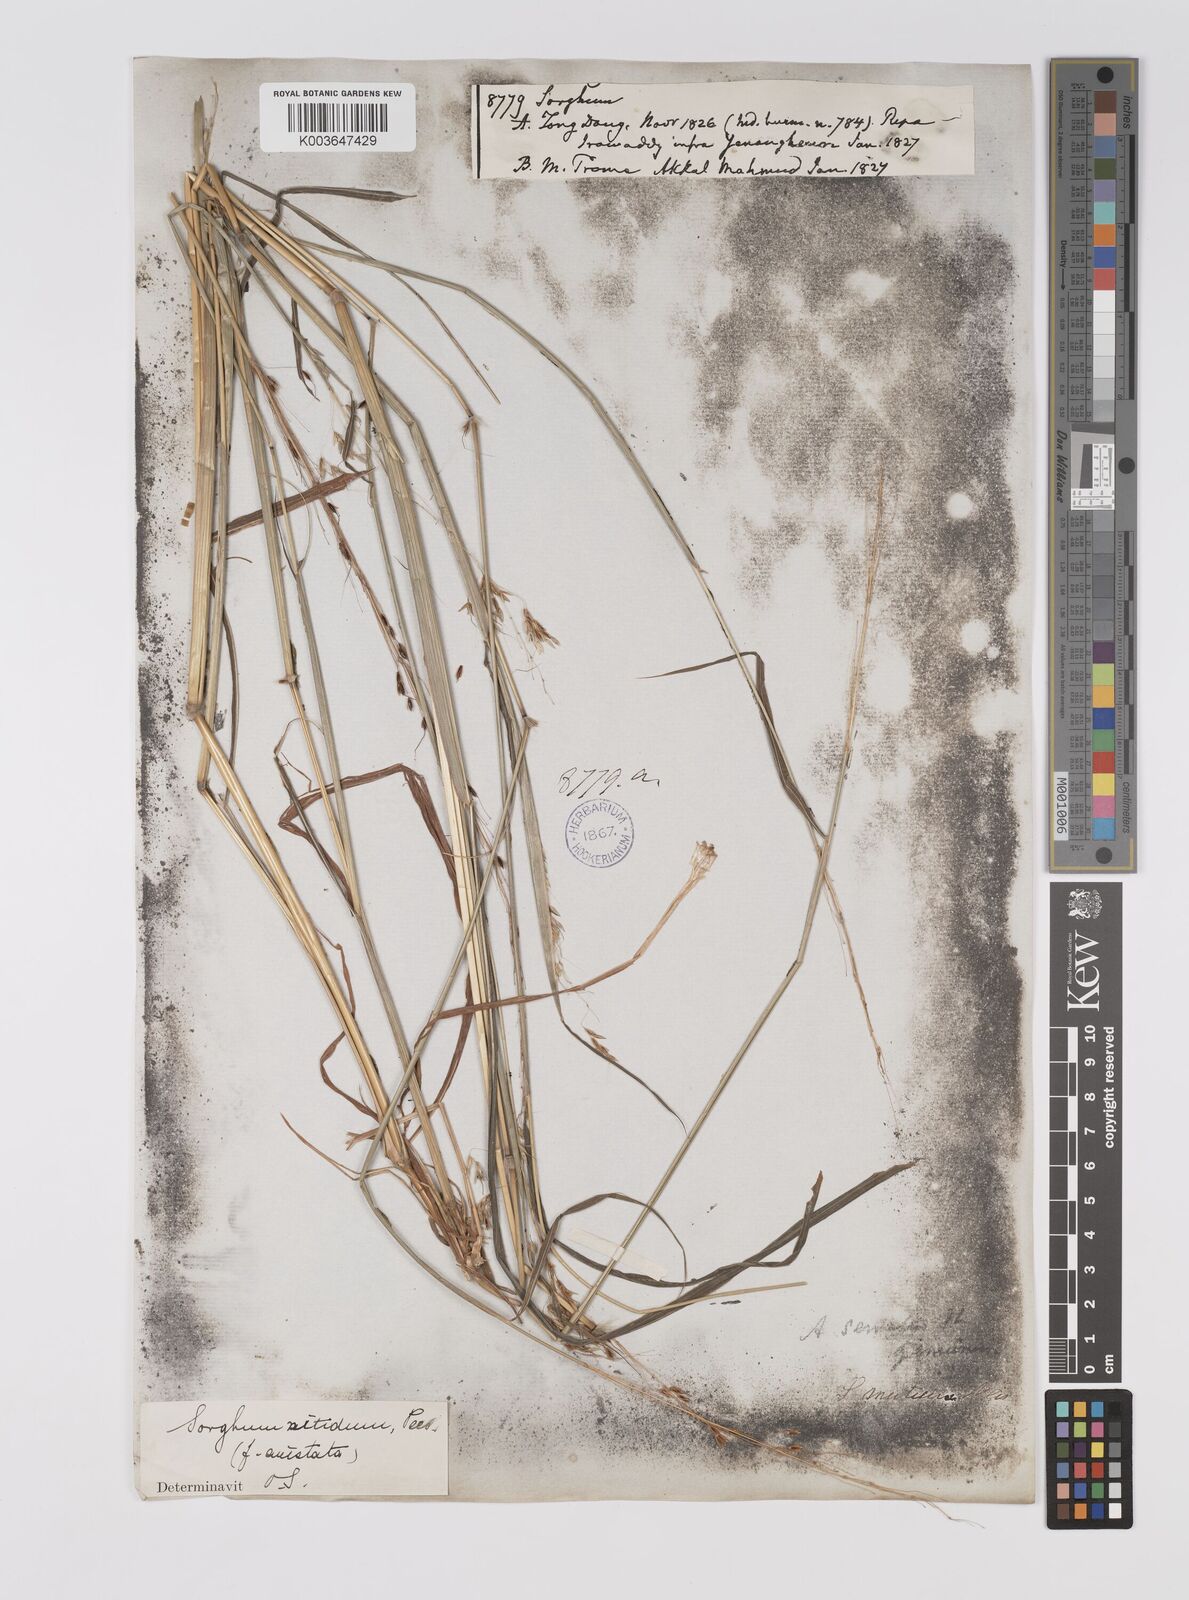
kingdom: Plantae
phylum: Tracheophyta
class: Liliopsida
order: Poales
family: Poaceae
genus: Sorghum
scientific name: Sorghum nitidum
